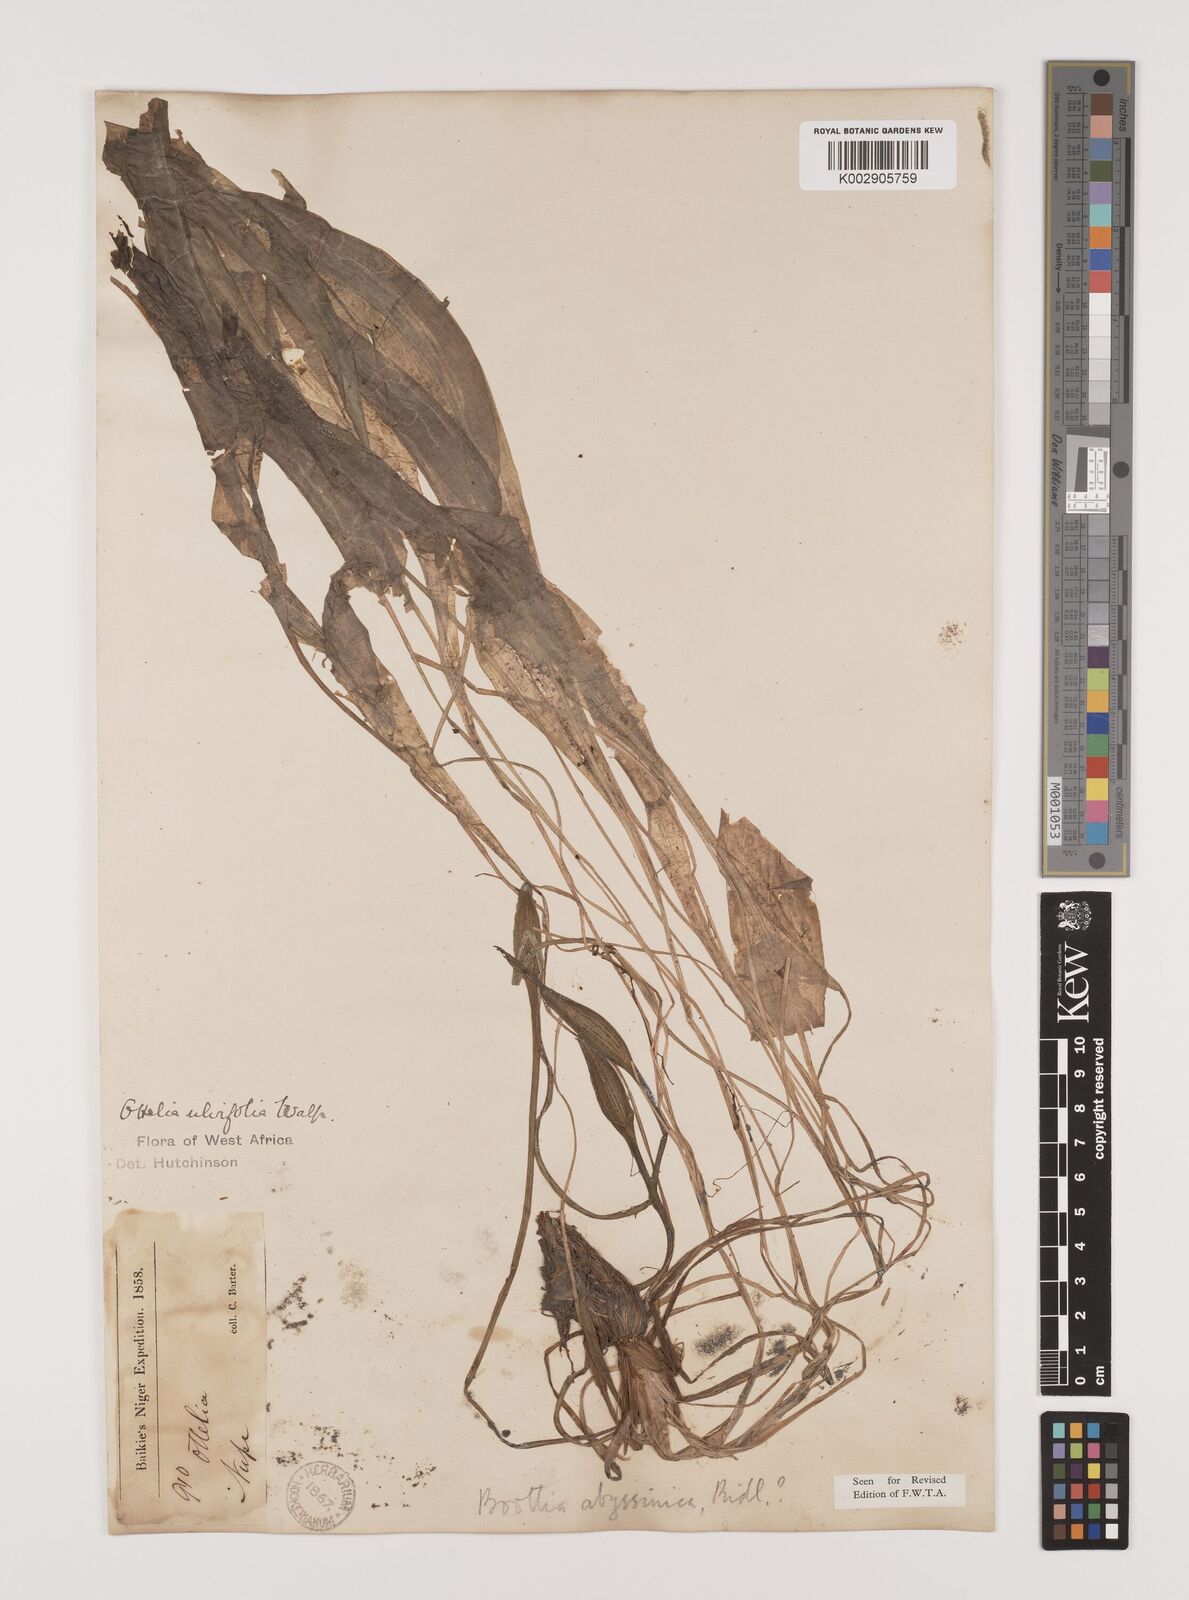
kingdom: Plantae
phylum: Tracheophyta
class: Liliopsida
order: Alismatales
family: Hydrocharitaceae
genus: Ottelia
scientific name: Ottelia ulvifolia
